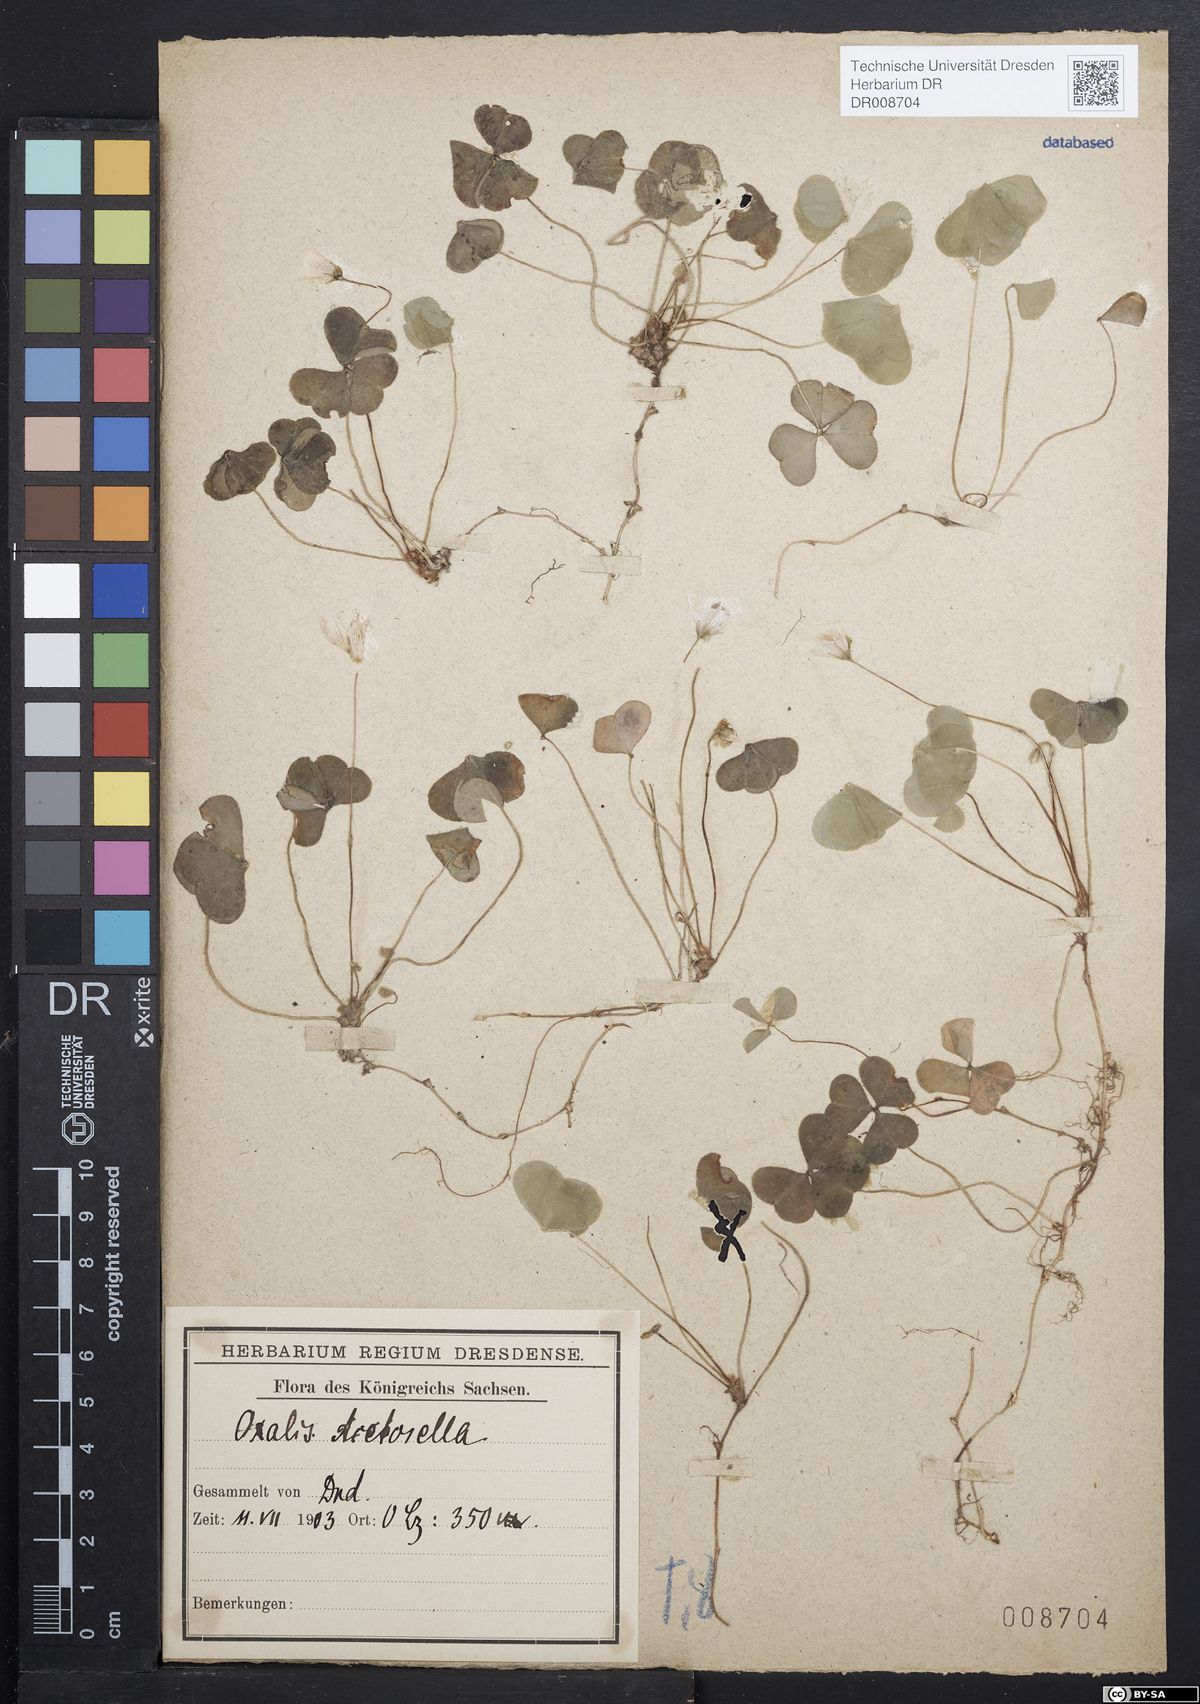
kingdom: Plantae
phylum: Tracheophyta
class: Magnoliopsida
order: Oxalidales
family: Oxalidaceae
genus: Oxalis
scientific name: Oxalis acetosella
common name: Wood-sorrel
